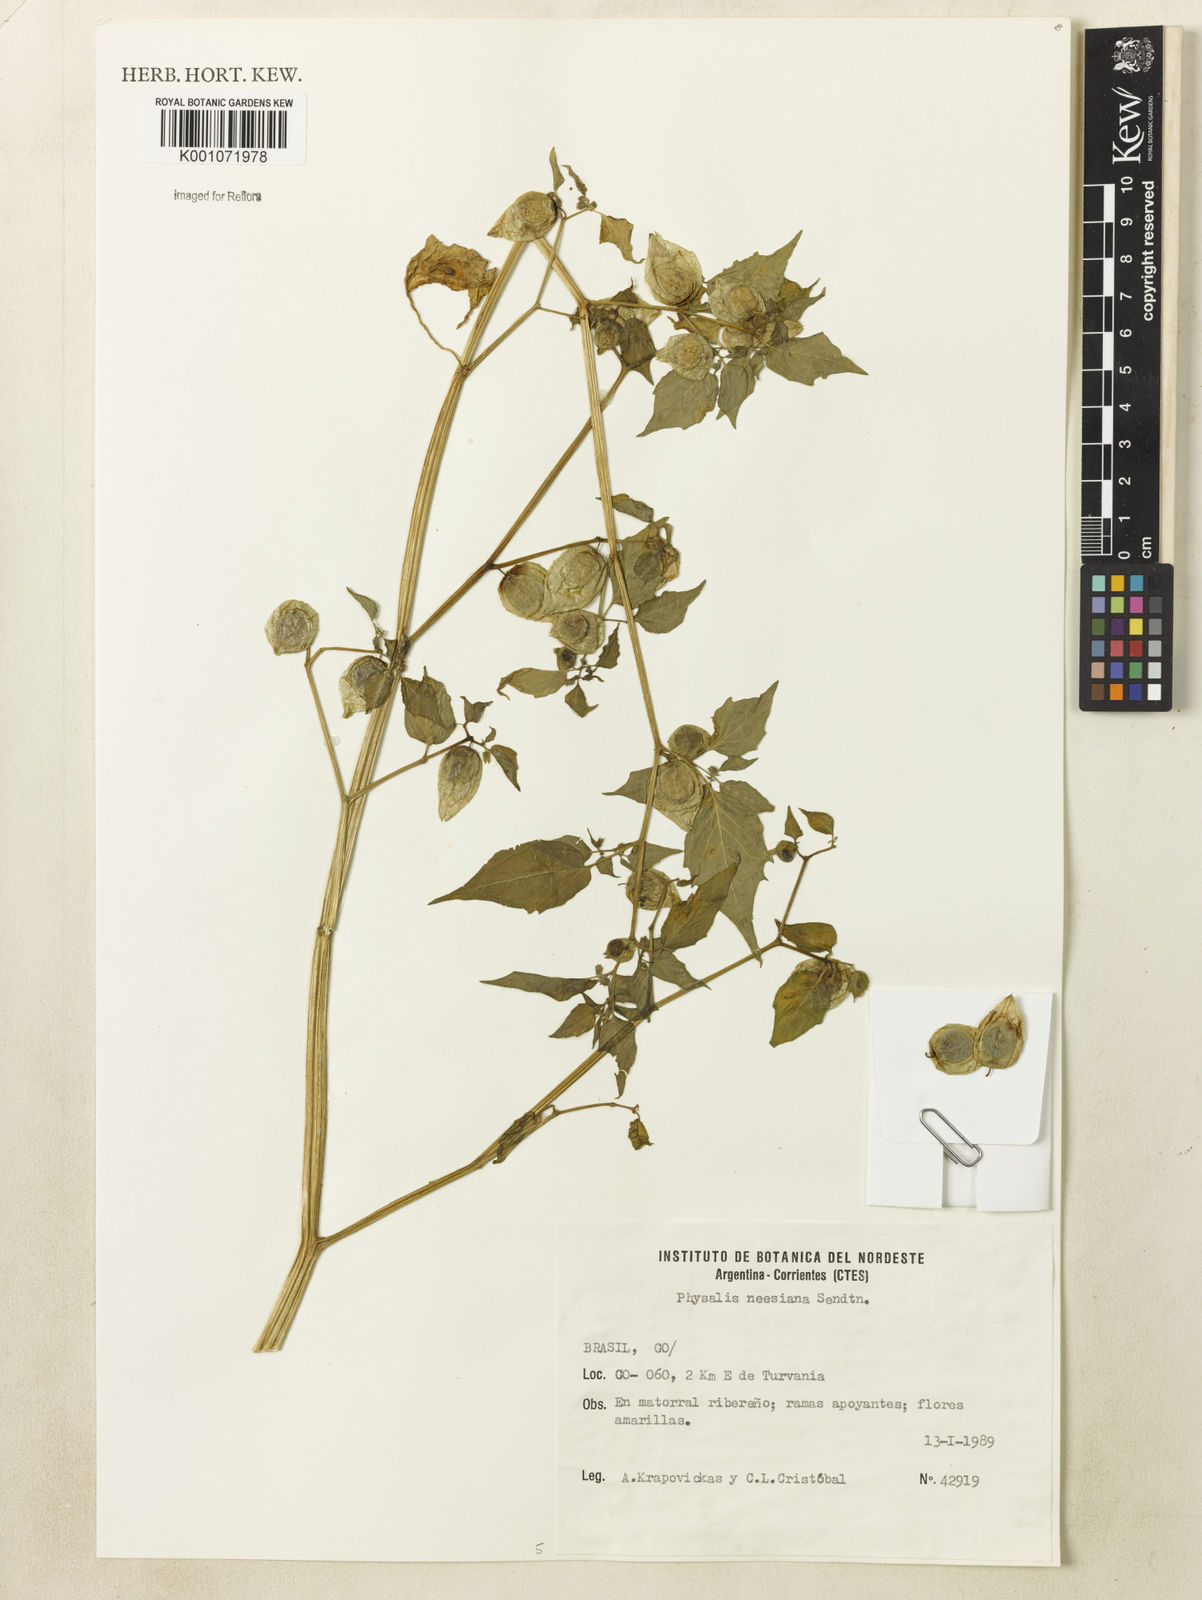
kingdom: Plantae
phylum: Tracheophyta
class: Magnoliopsida
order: Solanales
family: Solanaceae
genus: Physalis
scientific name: Physalis pubescens
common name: Downy ground-cherry
